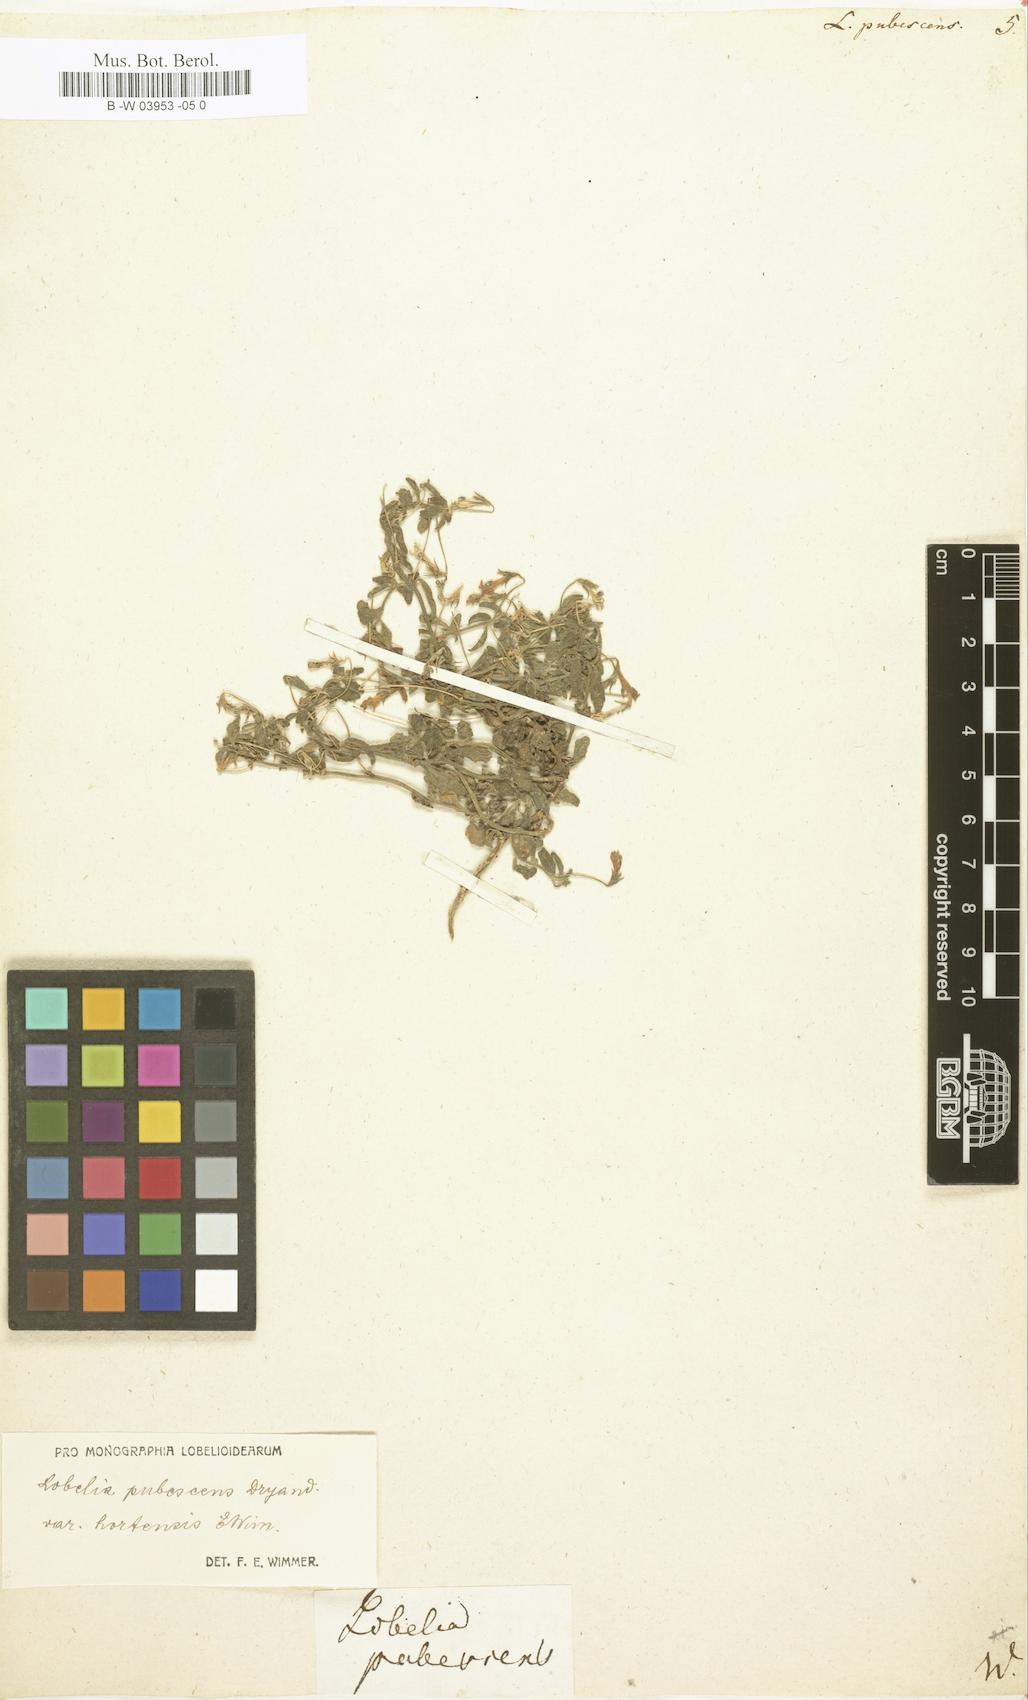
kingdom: Plantae
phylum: Tracheophyta
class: Magnoliopsida
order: Asterales
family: Campanulaceae
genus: Lobelia
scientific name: Lobelia pubescens
